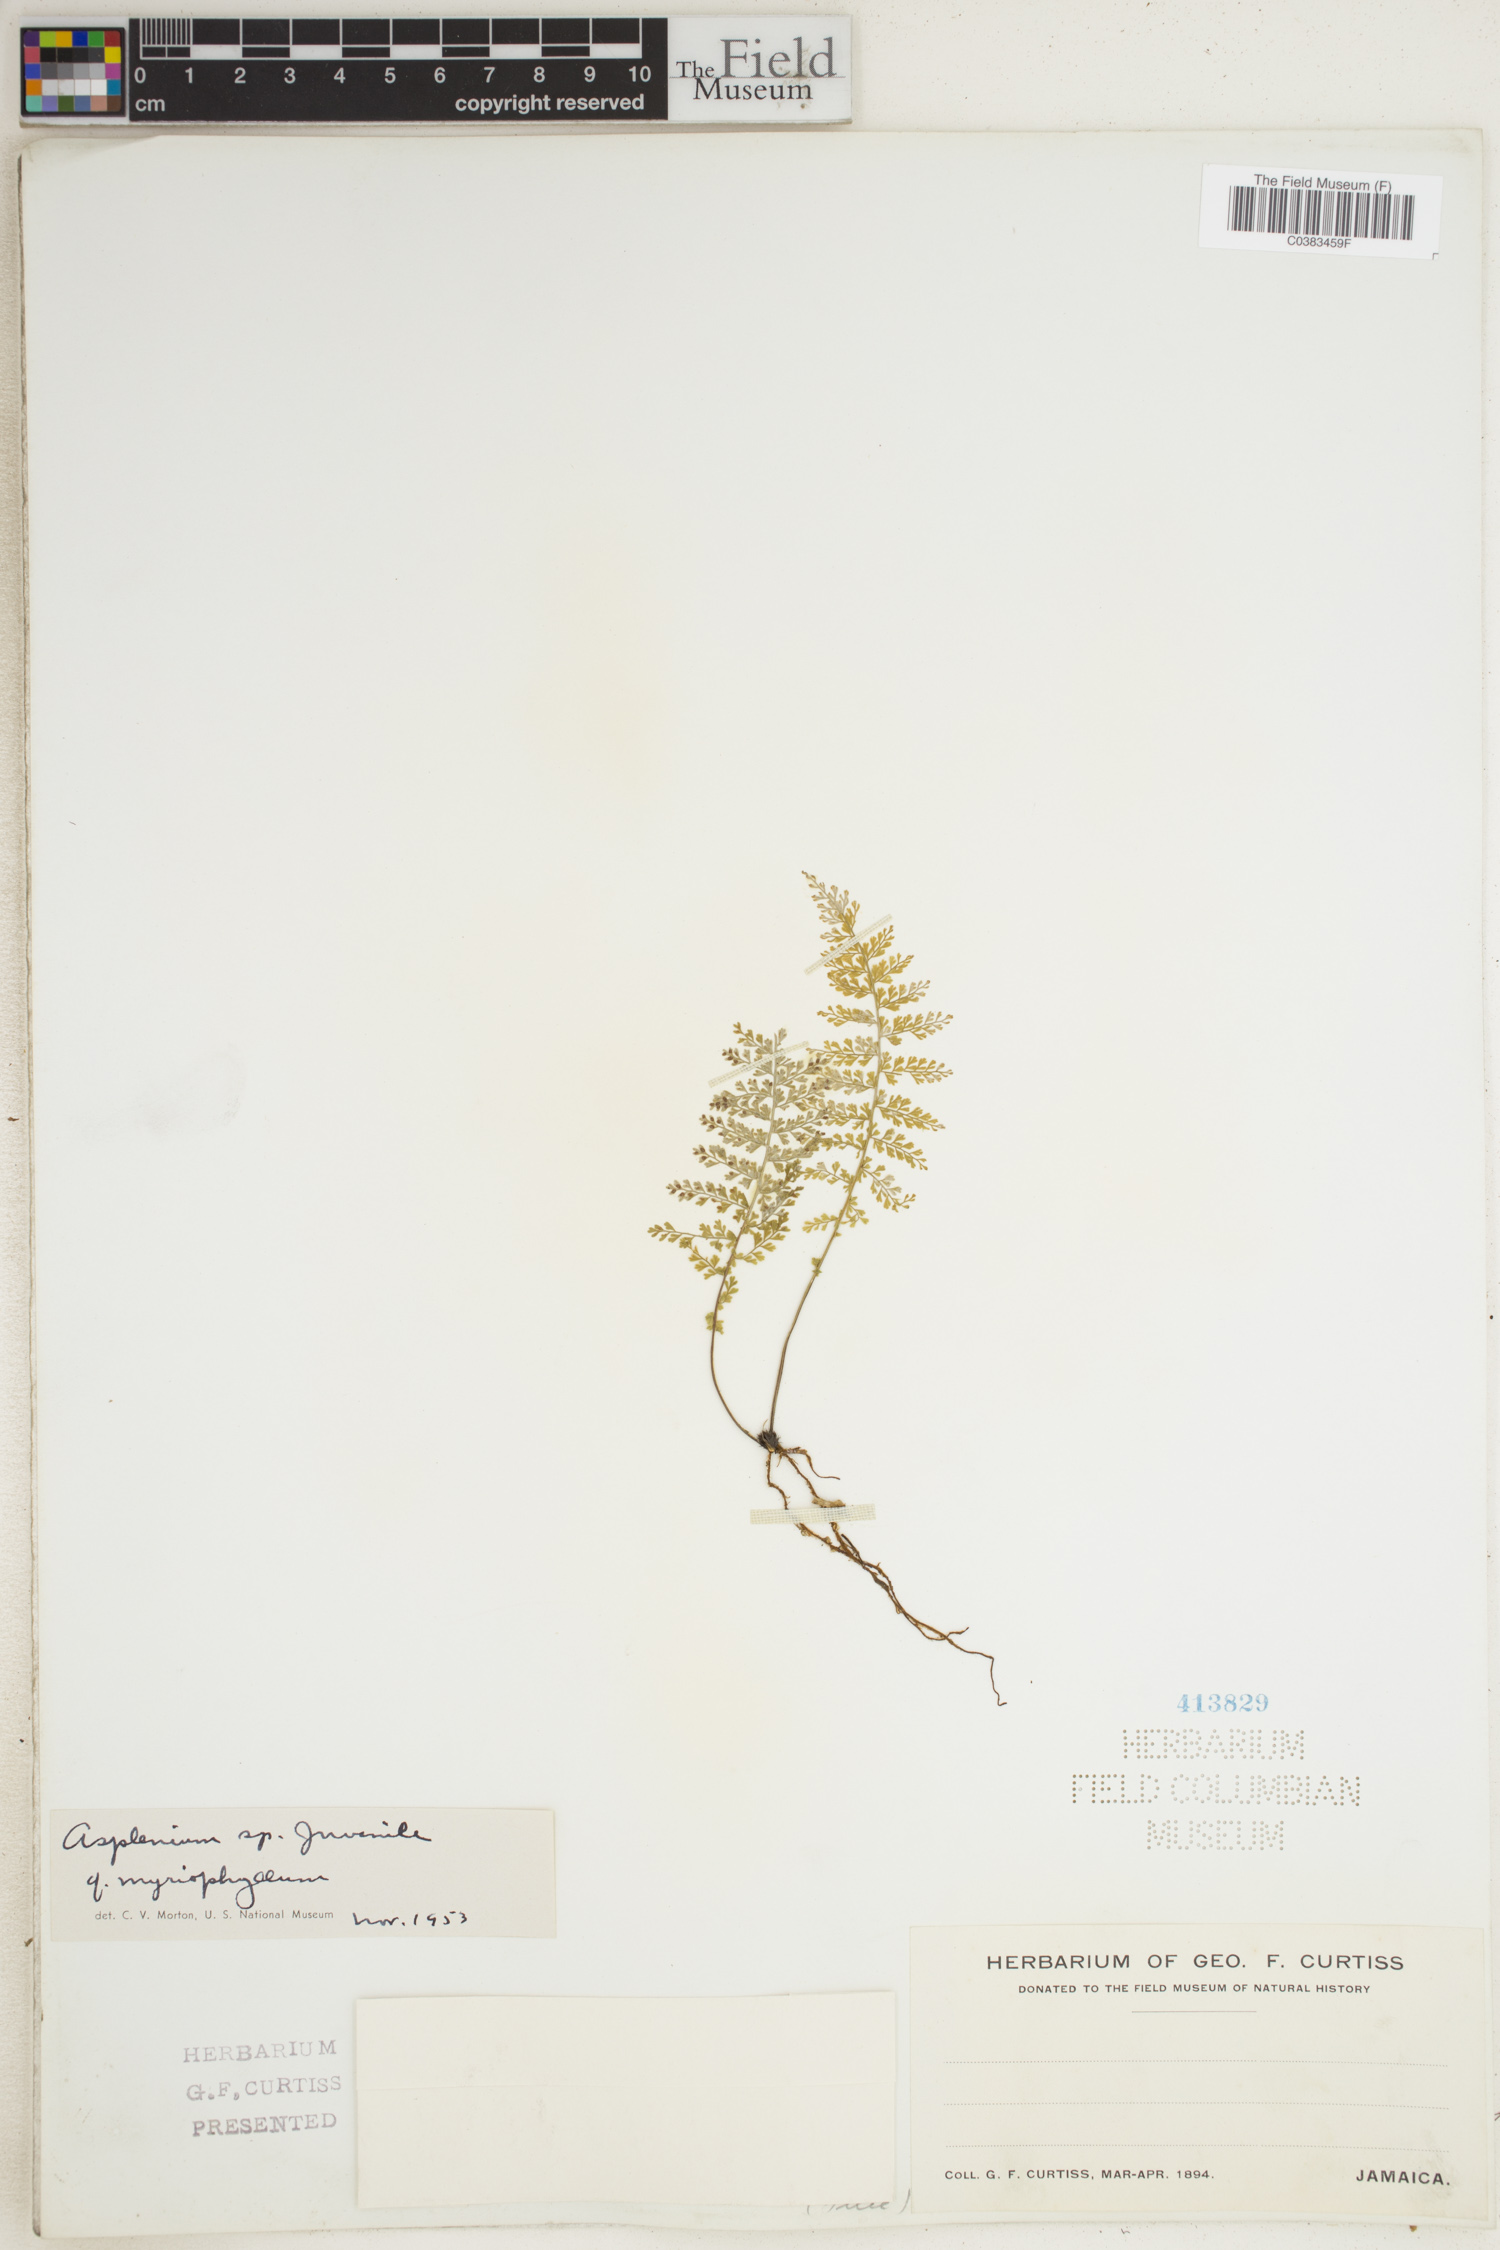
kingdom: Plantae
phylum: Tracheophyta
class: Polypodiopsida
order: Polypodiales
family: Aspleniaceae
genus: Asplenium
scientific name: Asplenium myriophyllum
